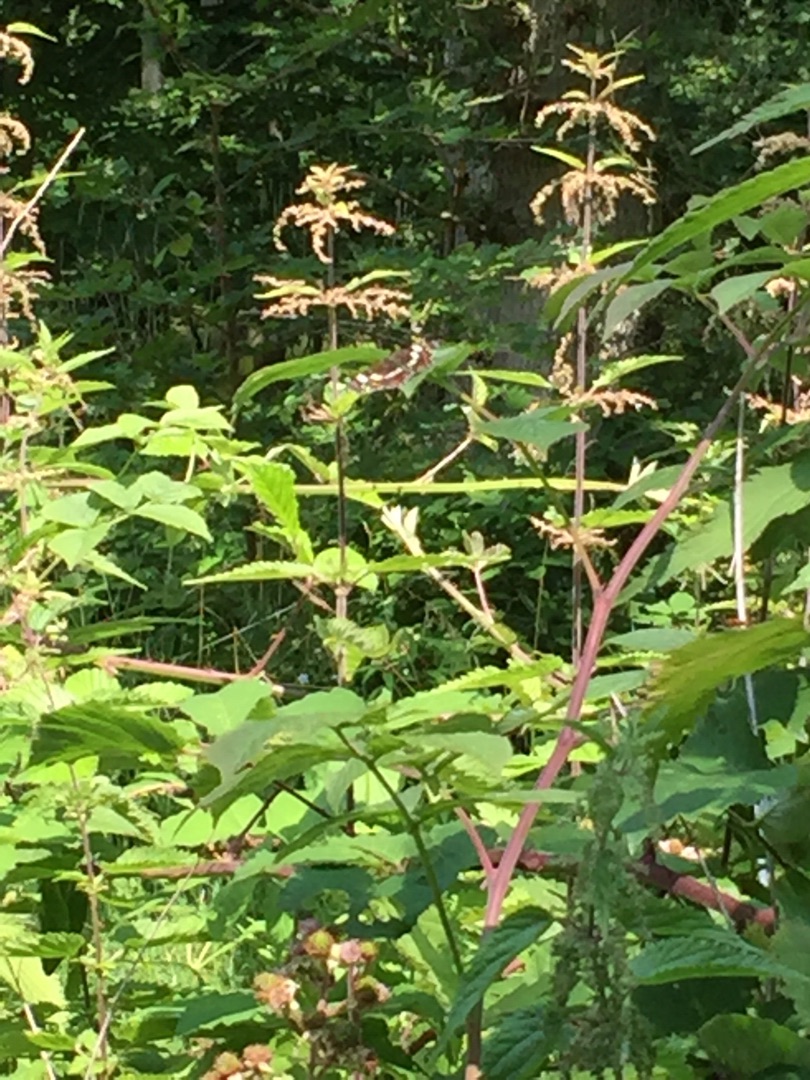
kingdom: Animalia
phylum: Arthropoda
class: Insecta
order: Lepidoptera
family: Nymphalidae
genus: Araschnia
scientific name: Araschnia levana
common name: Nældesommerfugl
